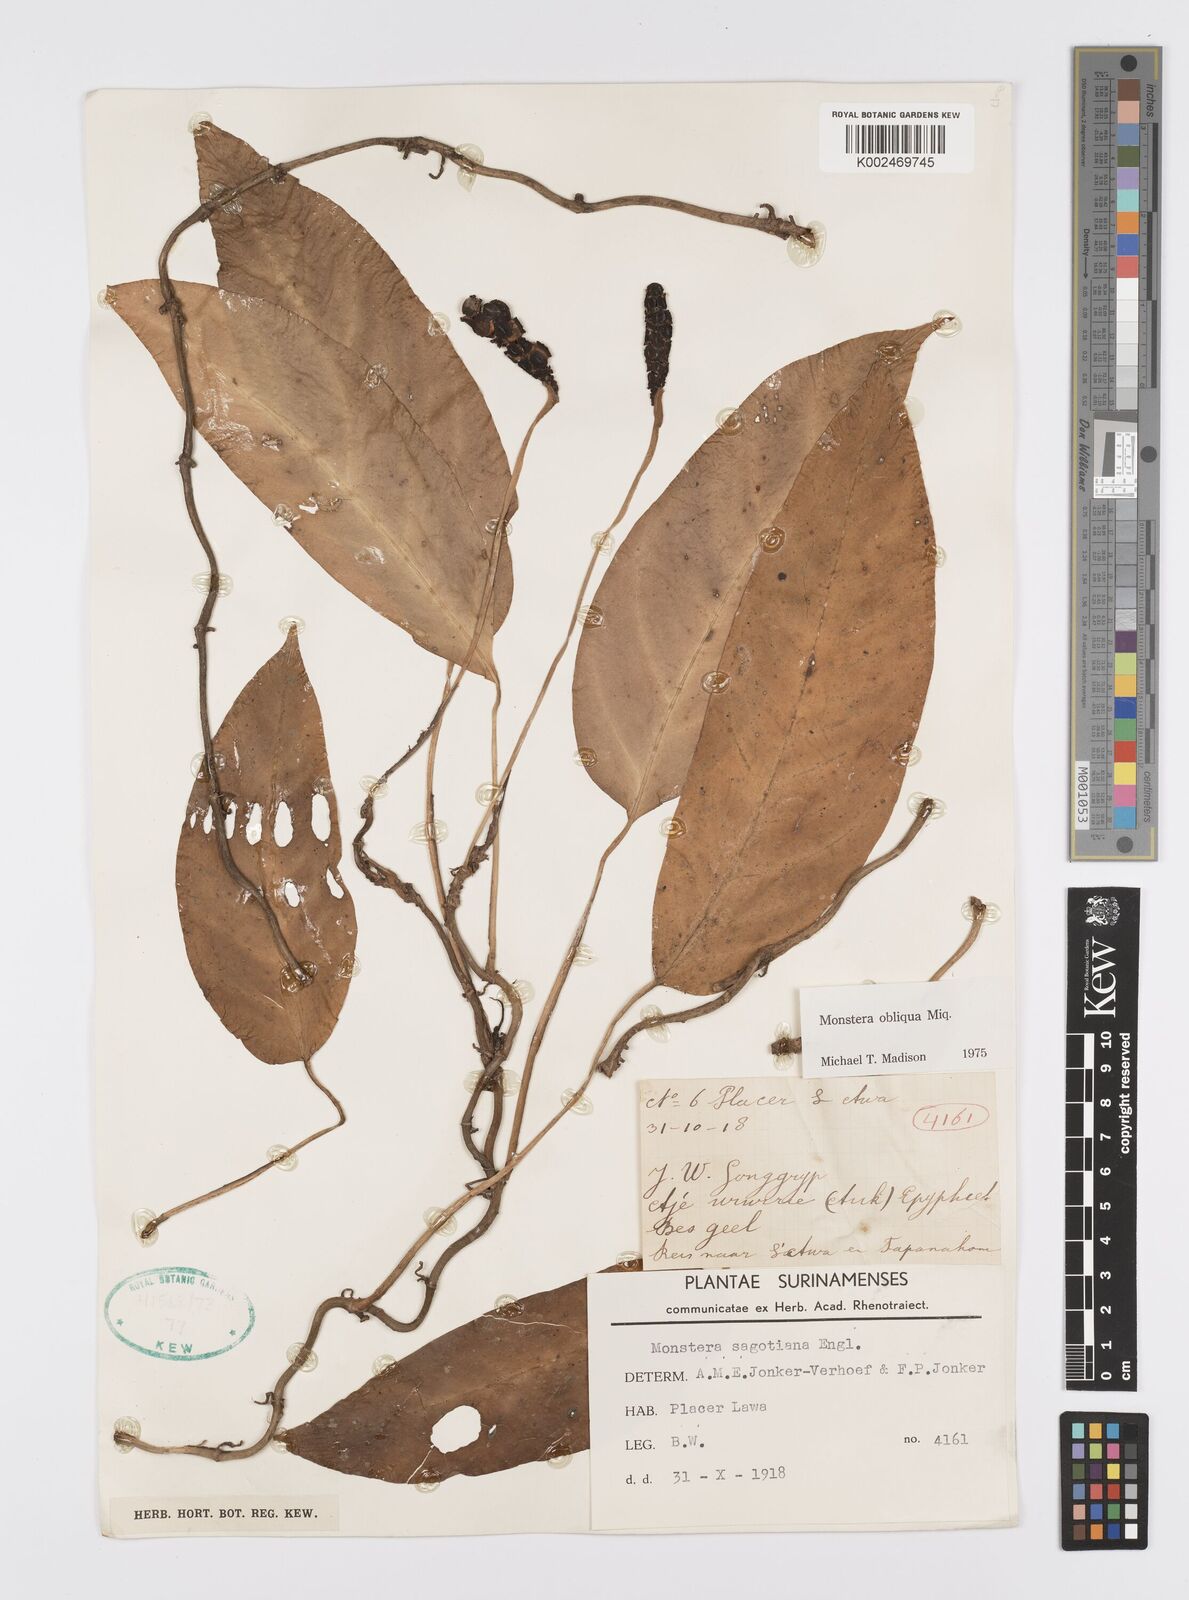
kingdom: Plantae
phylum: Tracheophyta
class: Liliopsida
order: Alismatales
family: Araceae
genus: Monstera
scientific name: Monstera obliqua
